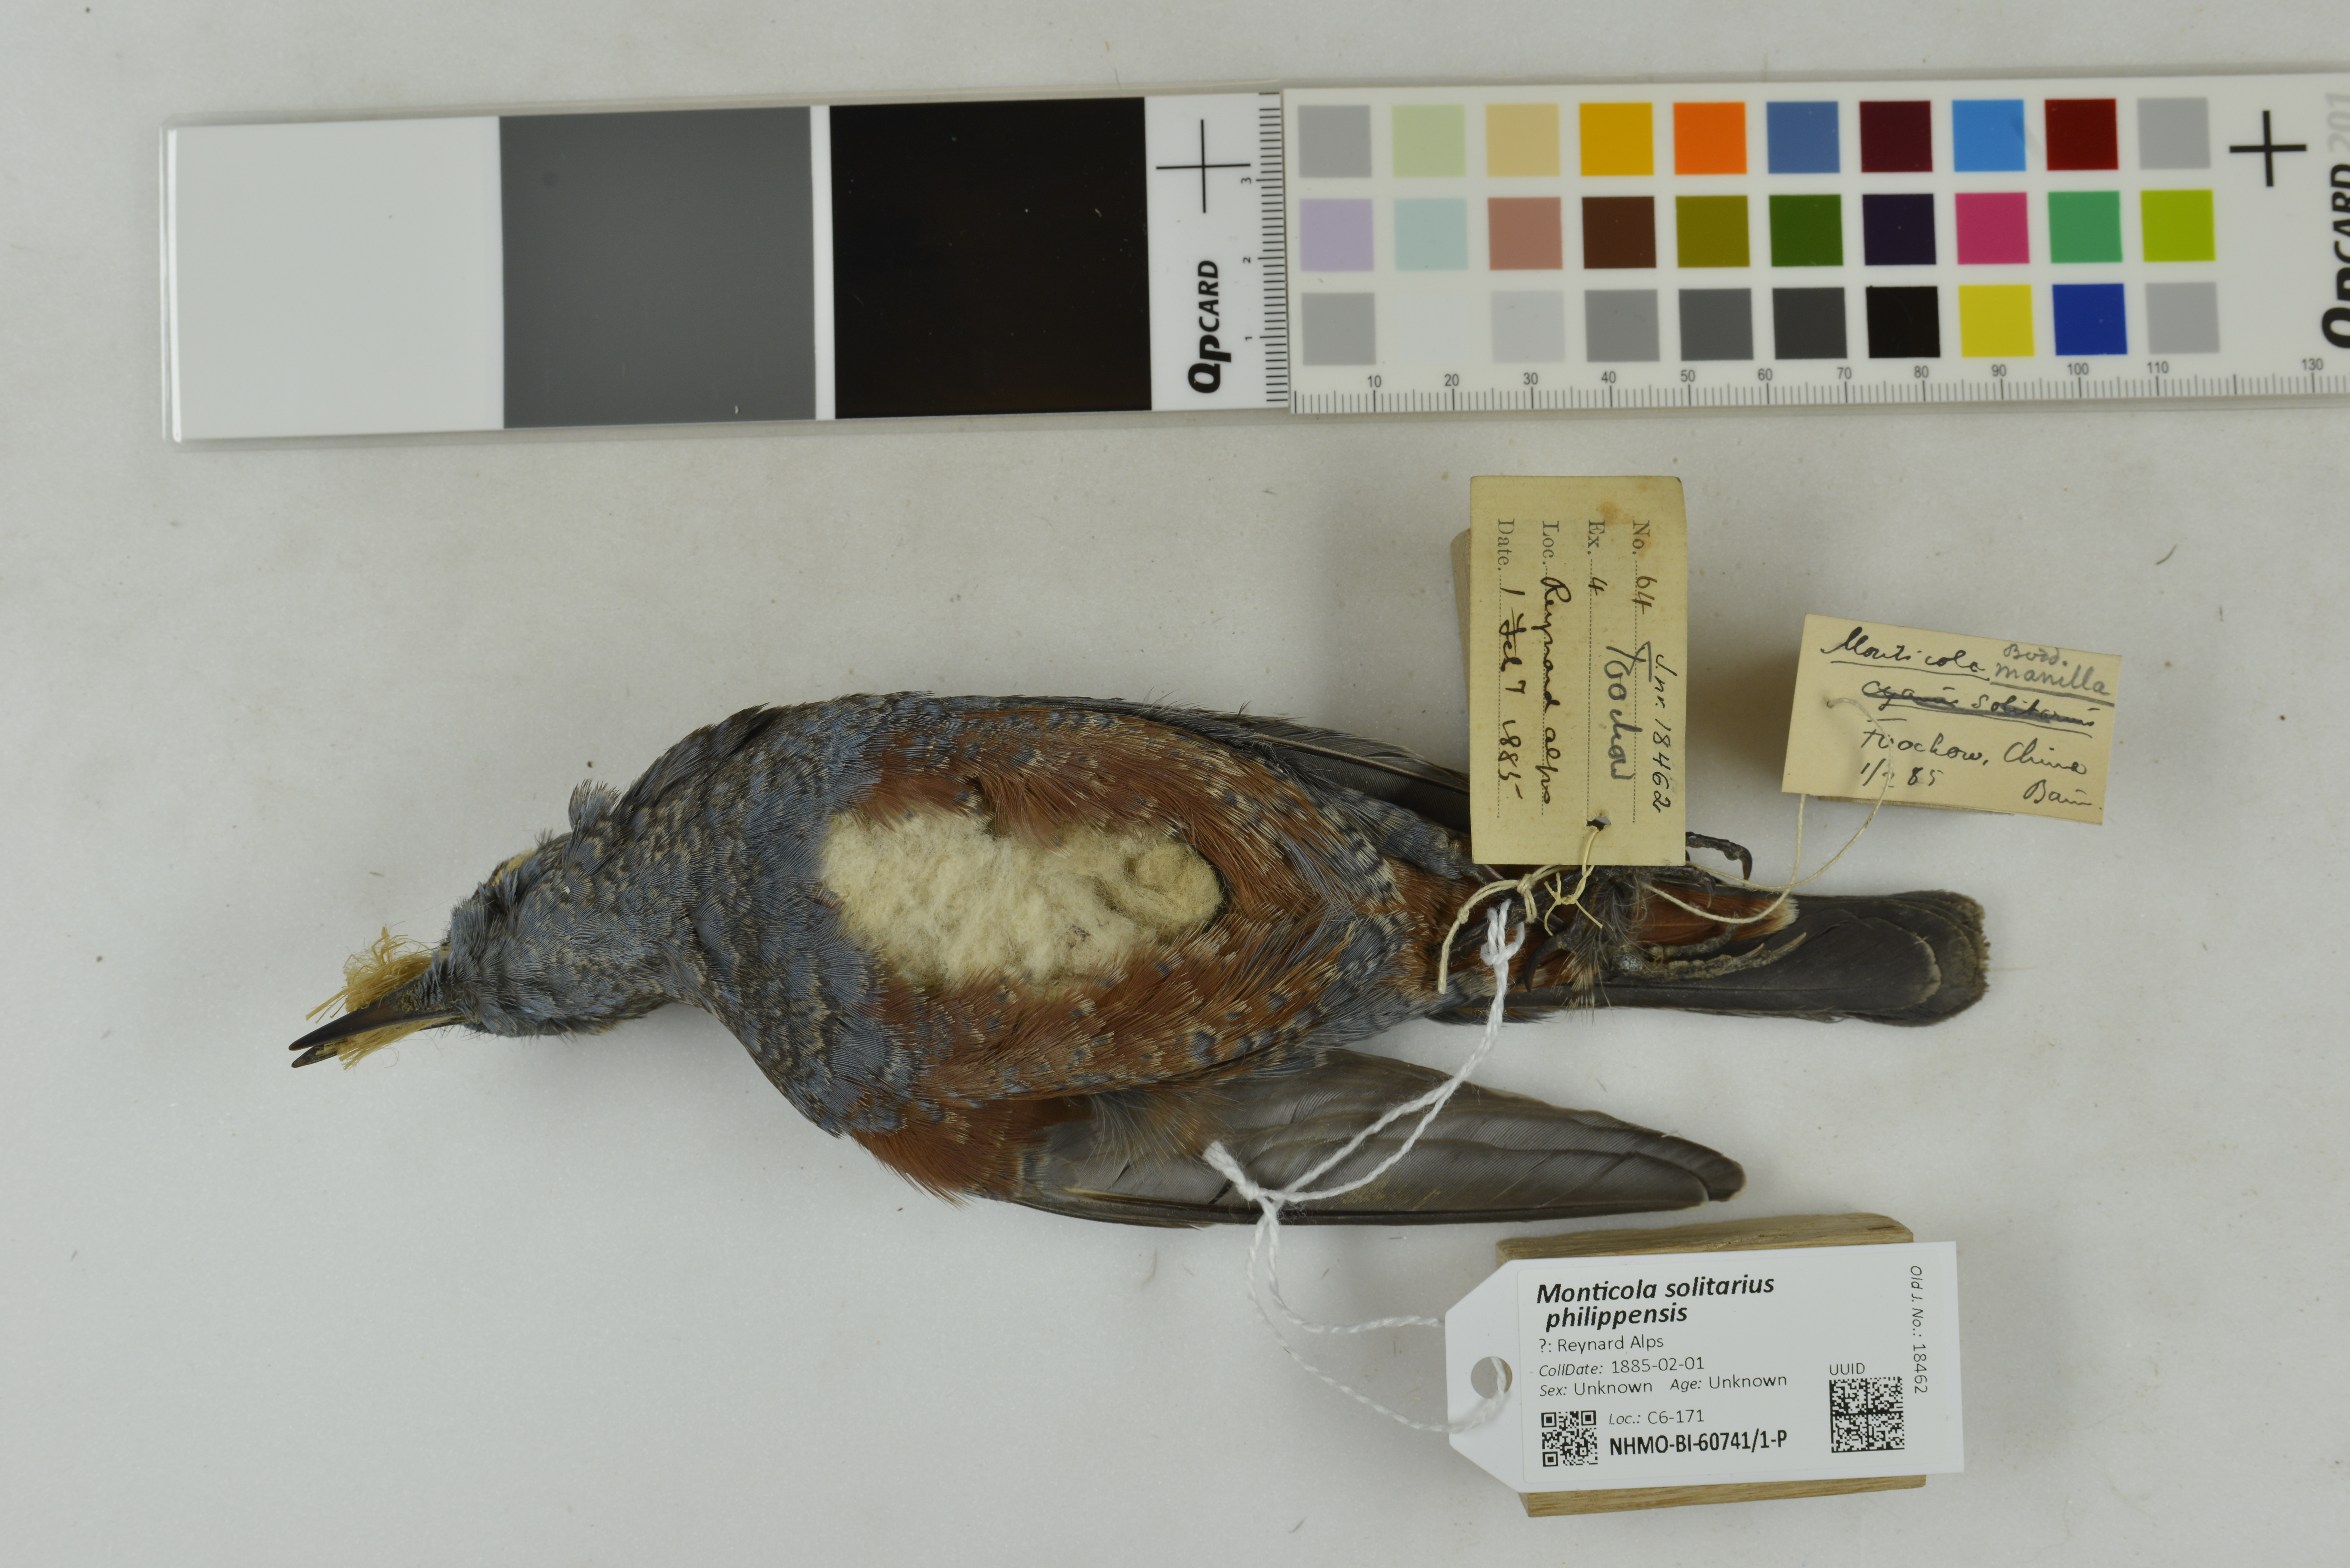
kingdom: Animalia
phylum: Chordata
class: Aves
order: Passeriformes
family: Muscicapidae
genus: Monticola
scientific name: Monticola solitarius
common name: Blue rock thrush
